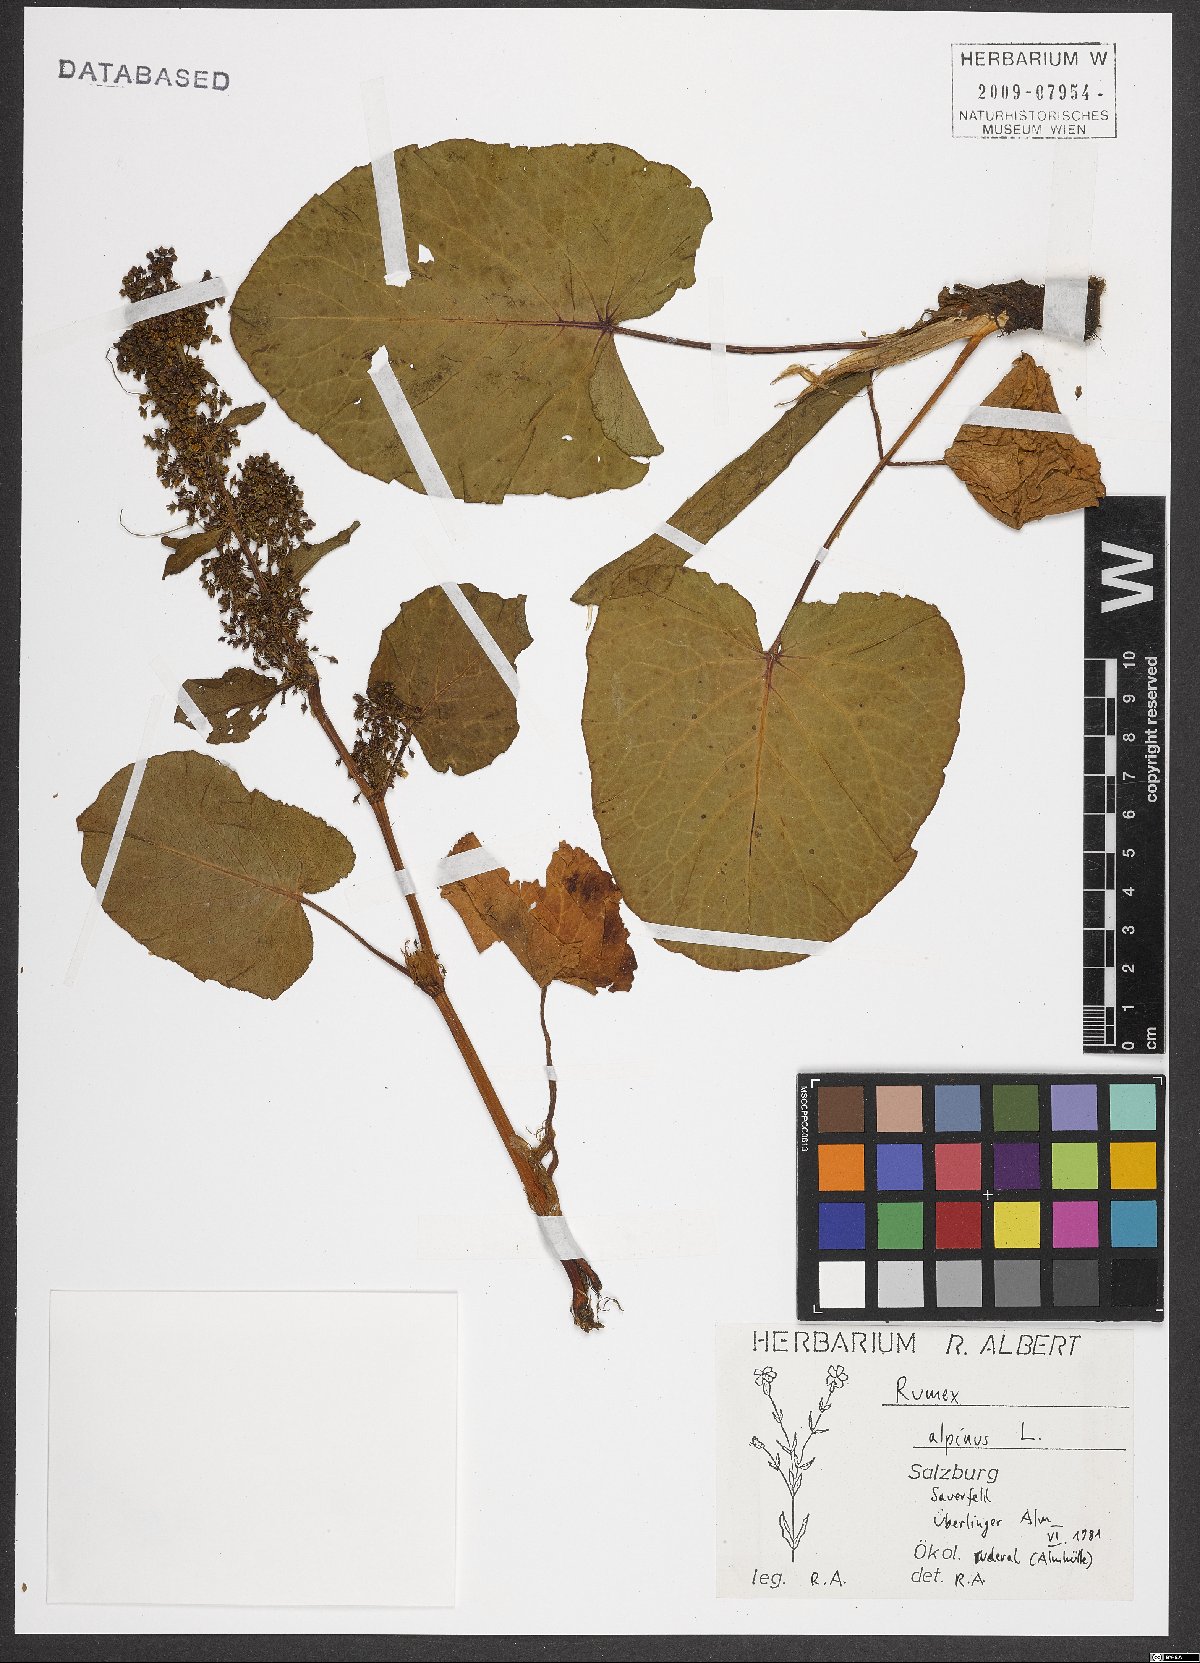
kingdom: Plantae
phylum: Tracheophyta
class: Magnoliopsida
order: Caryophyllales
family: Polygonaceae
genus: Rumex
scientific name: Rumex alpinus
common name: Alpine dock
